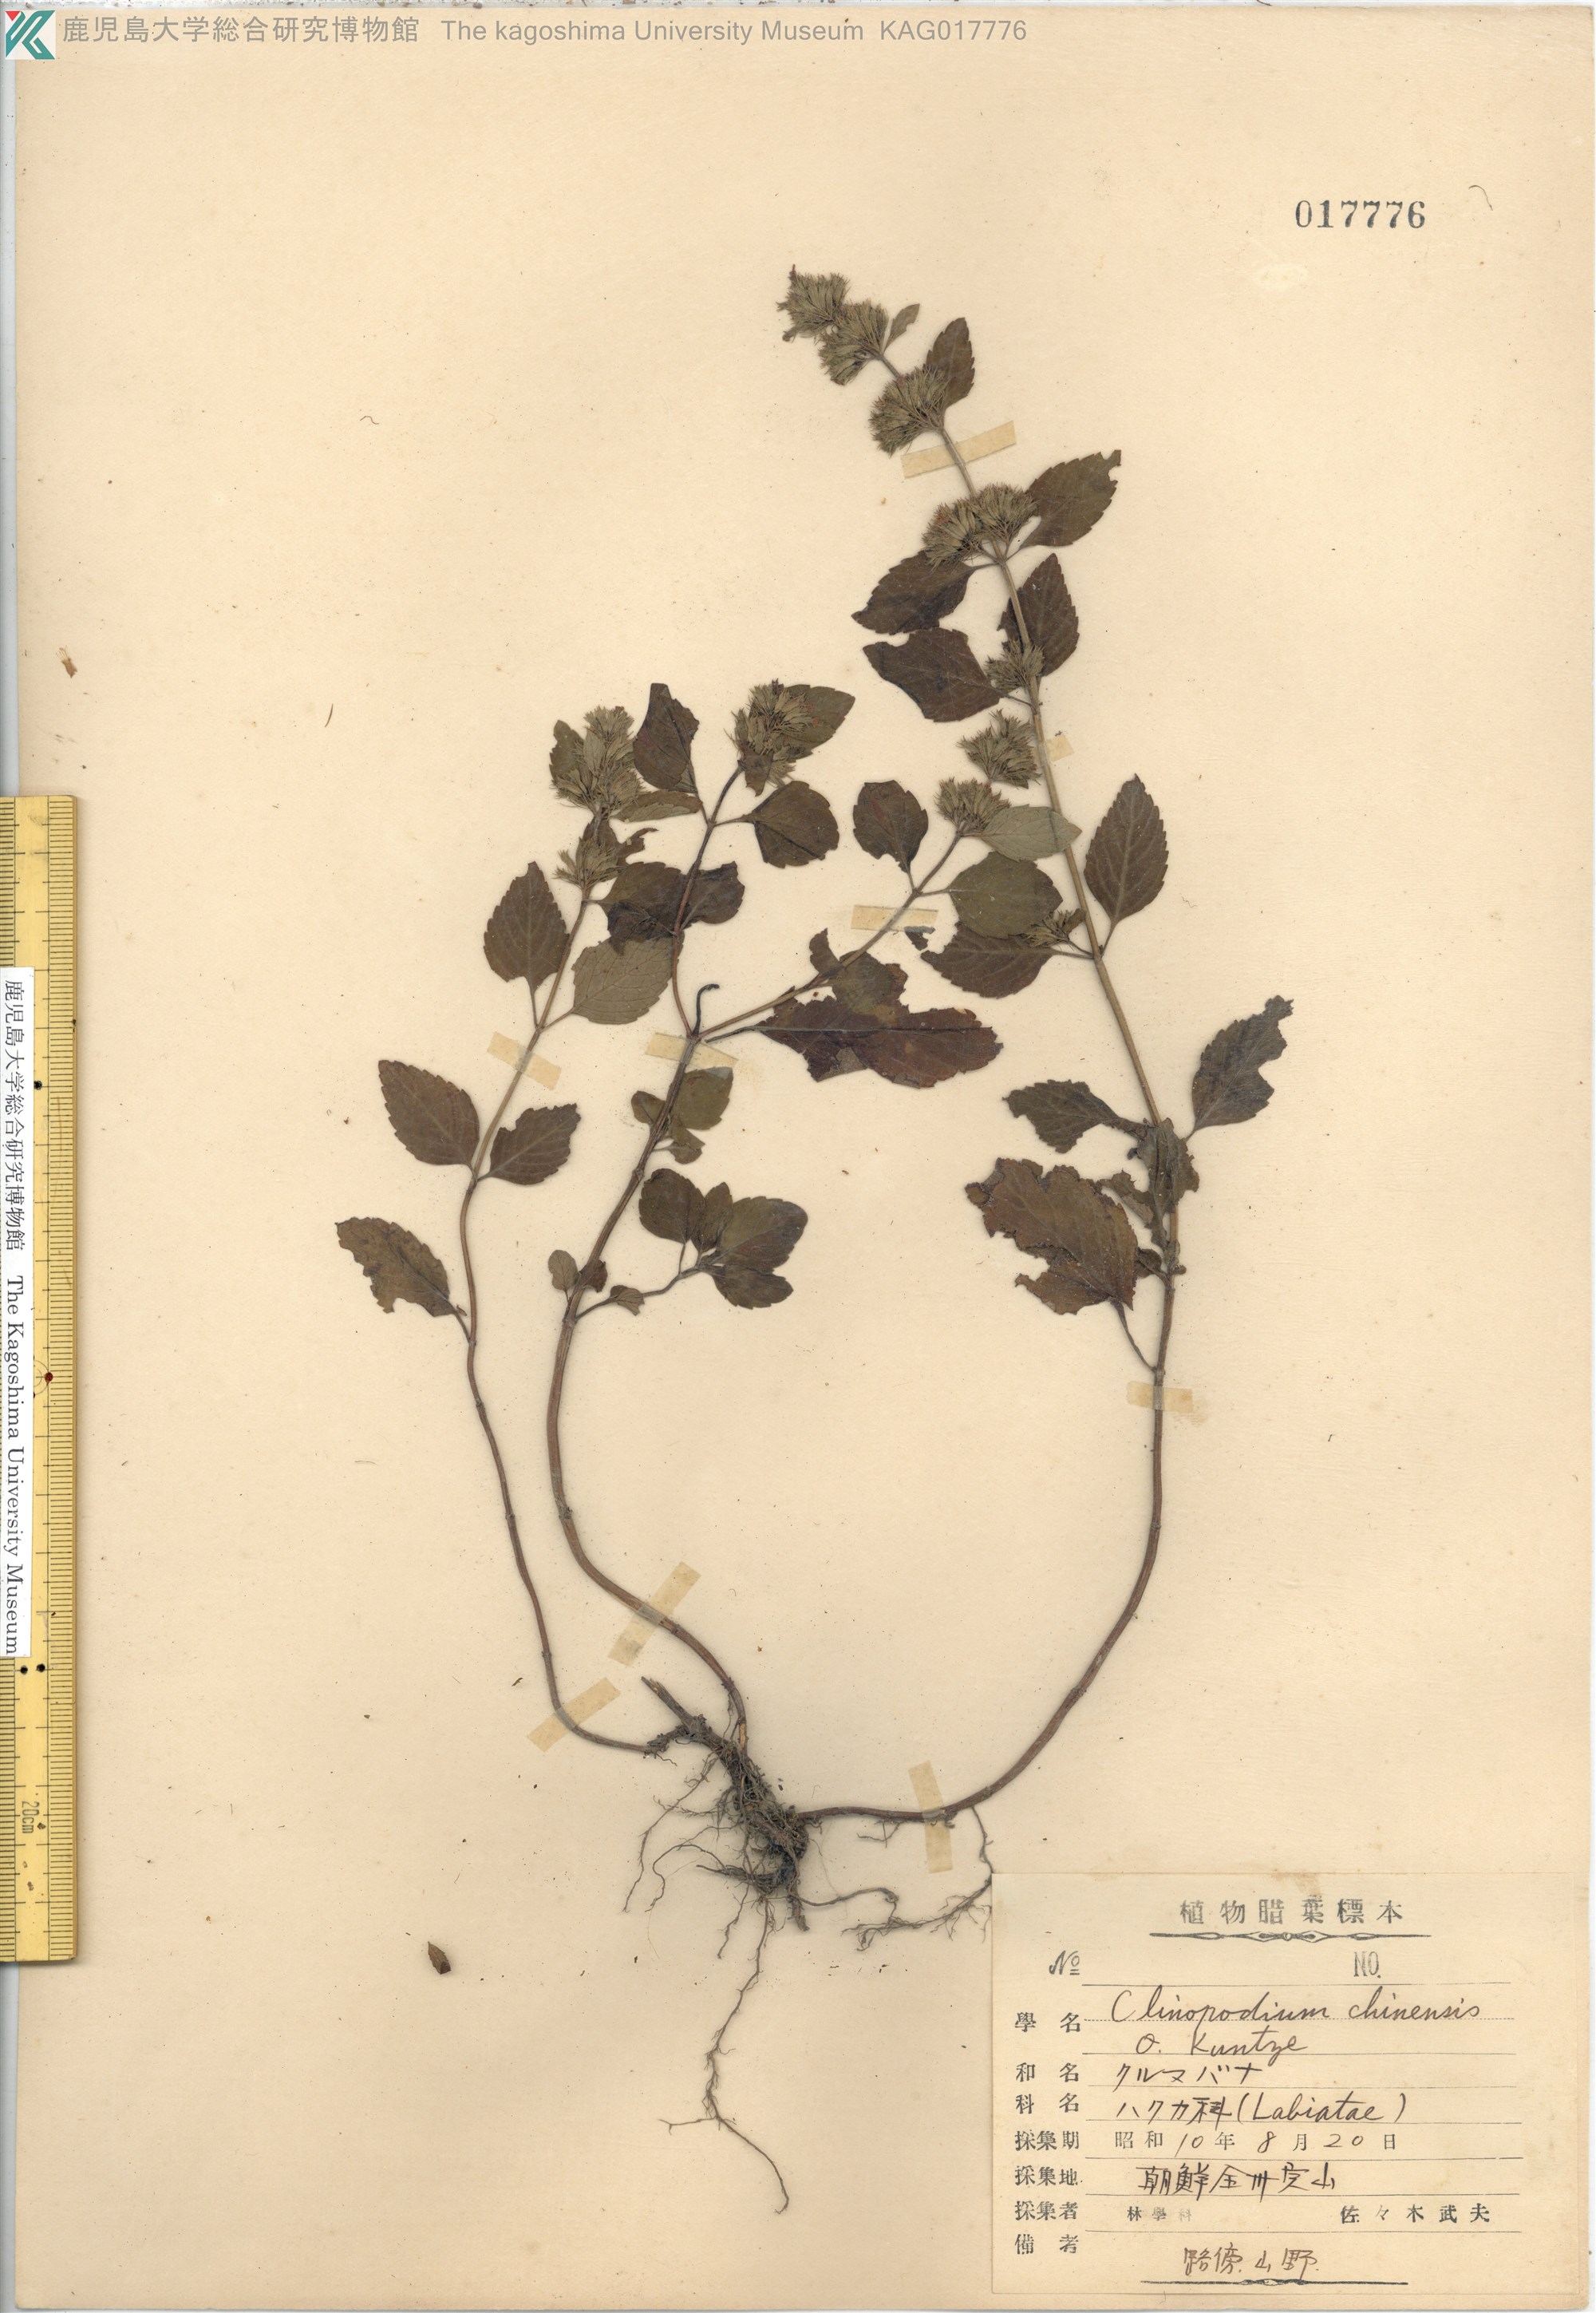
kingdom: Plantae
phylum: Tracheophyta
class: Magnoliopsida
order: Lamiales
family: Lamiaceae
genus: Clinopodium
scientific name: Clinopodium chinense
